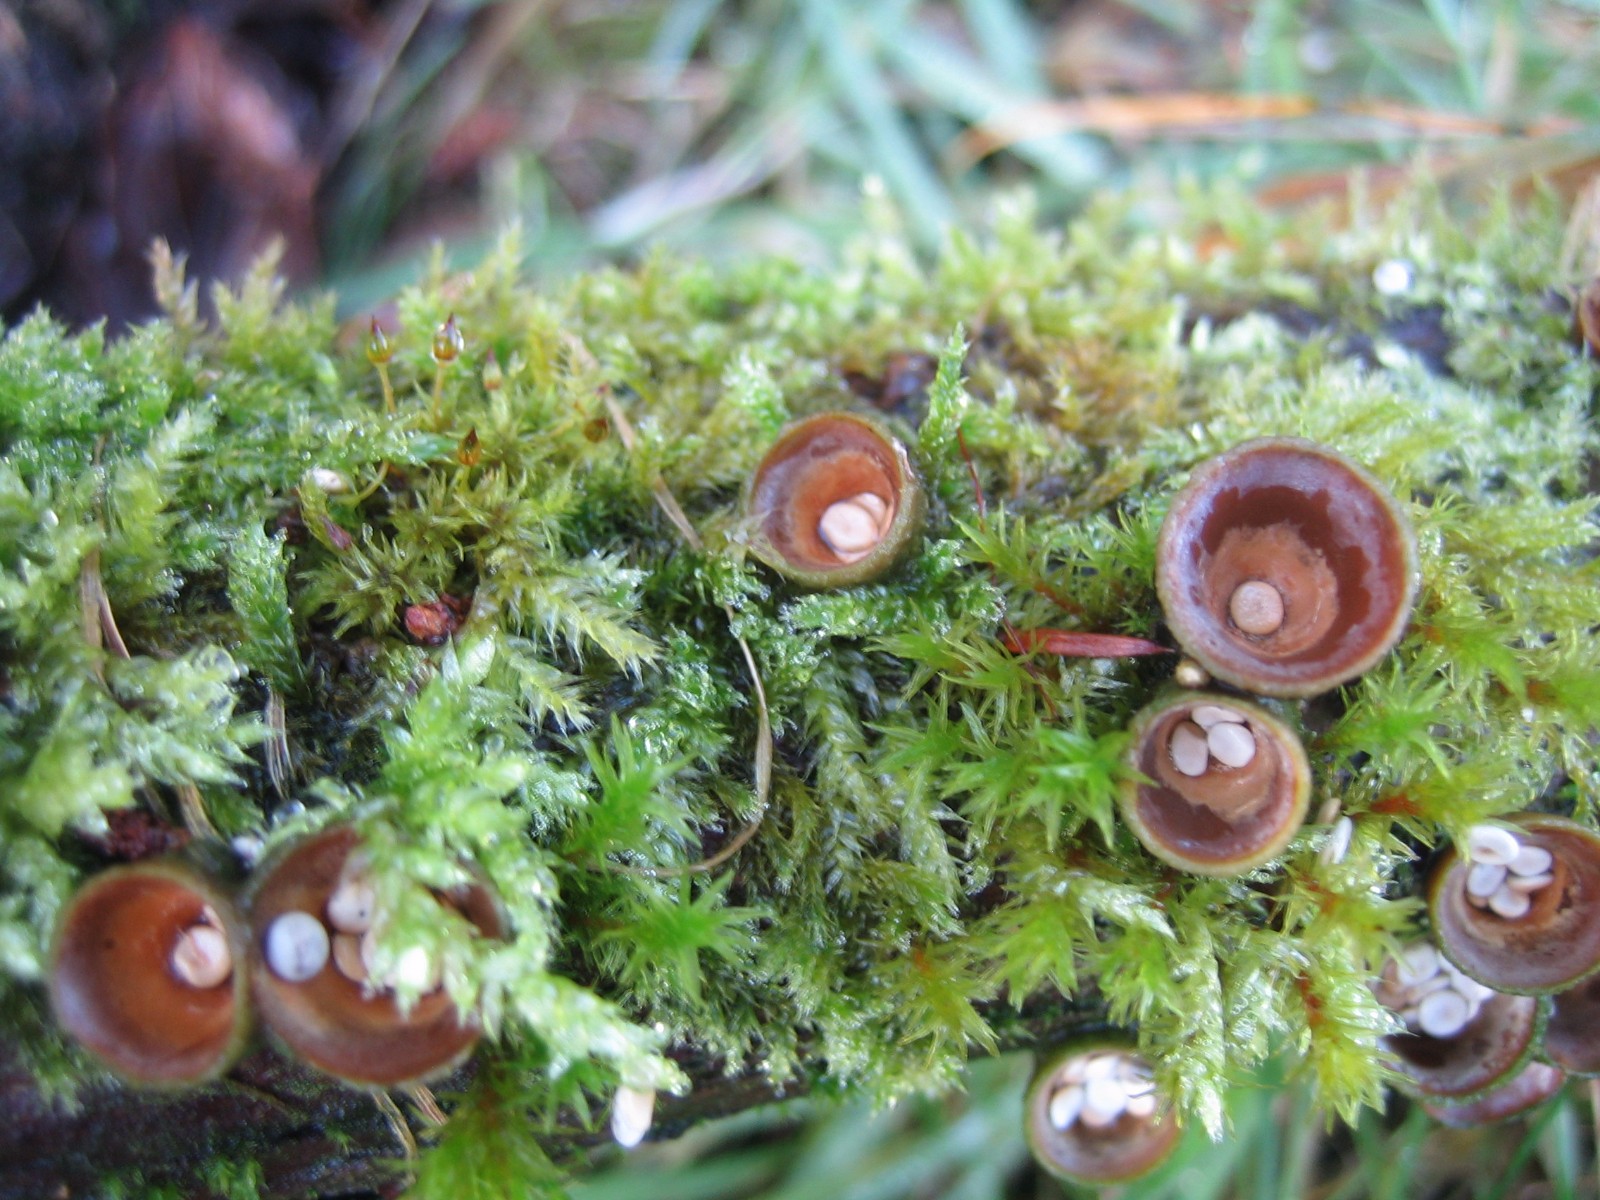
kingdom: Fungi
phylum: Basidiomycota
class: Agaricomycetes
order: Agaricales
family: Nidulariaceae
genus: Crucibulum
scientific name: Crucibulum crucibuliforme
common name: krukkesvamp
